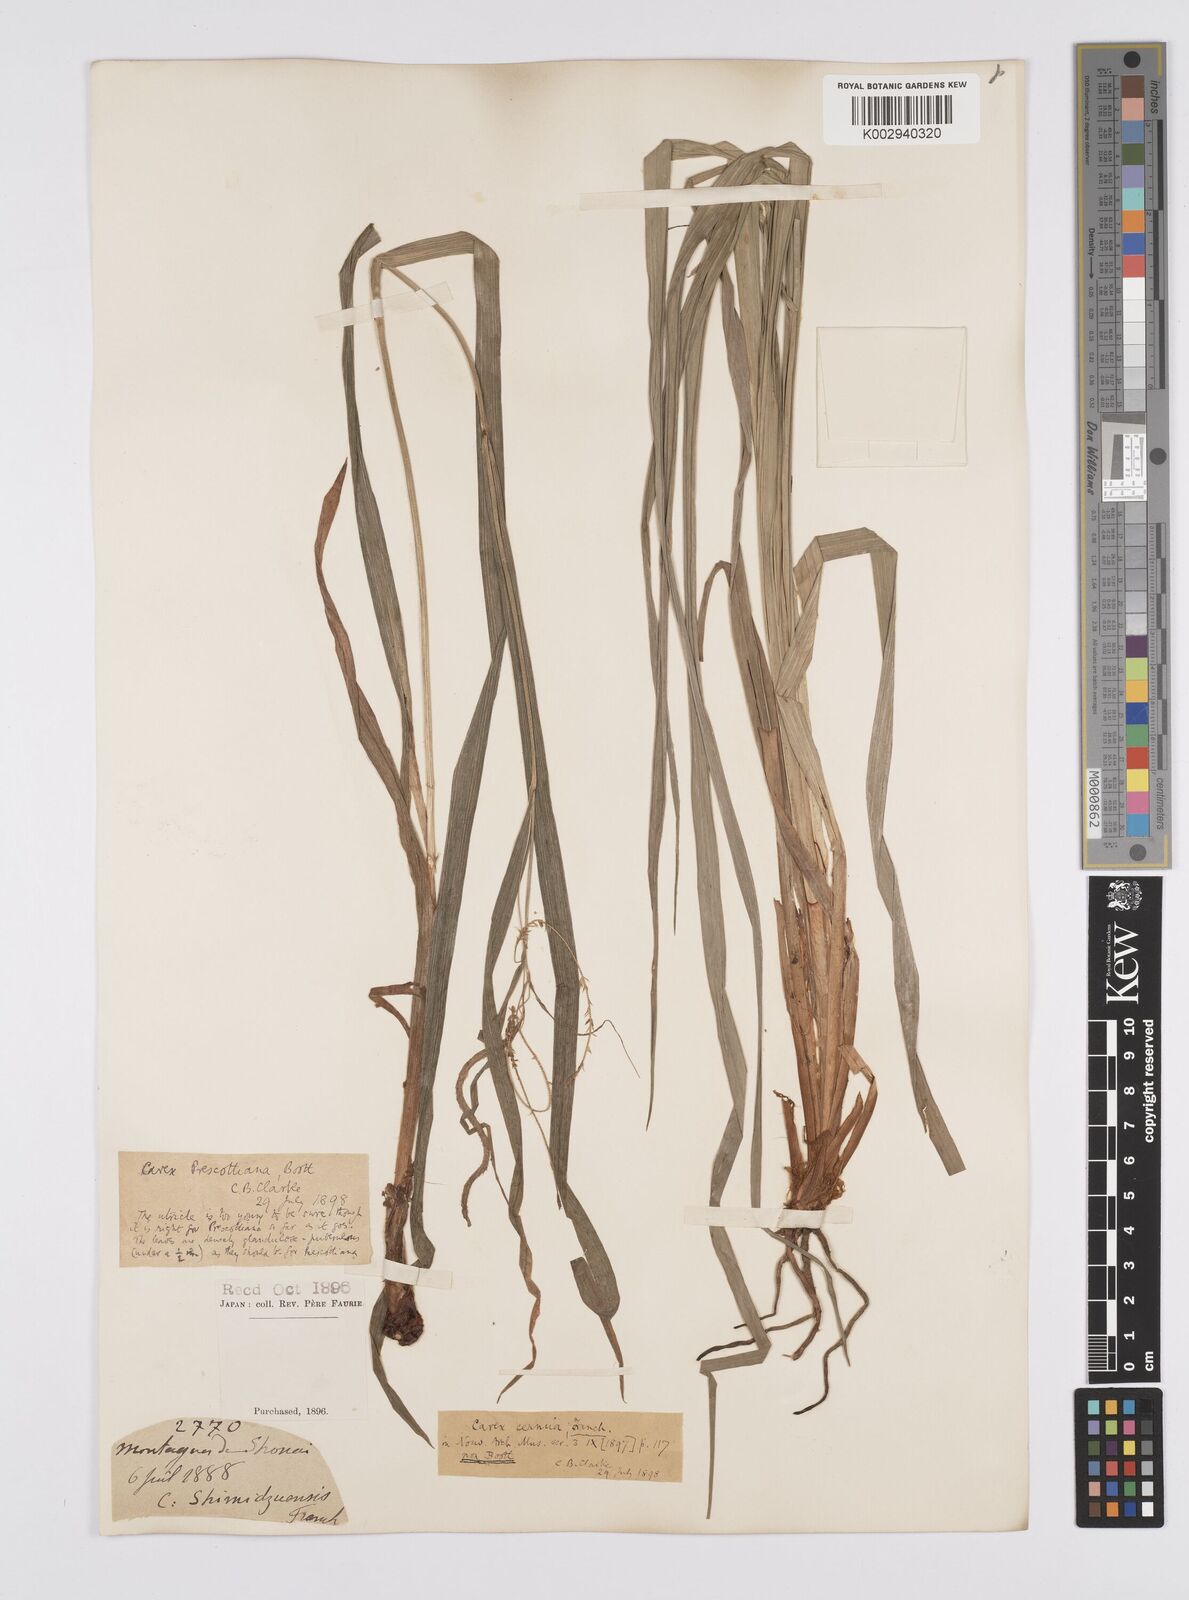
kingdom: Plantae
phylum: Tracheophyta
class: Liliopsida
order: Poales
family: Cyperaceae
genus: Carex
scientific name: Carex prescottiana
